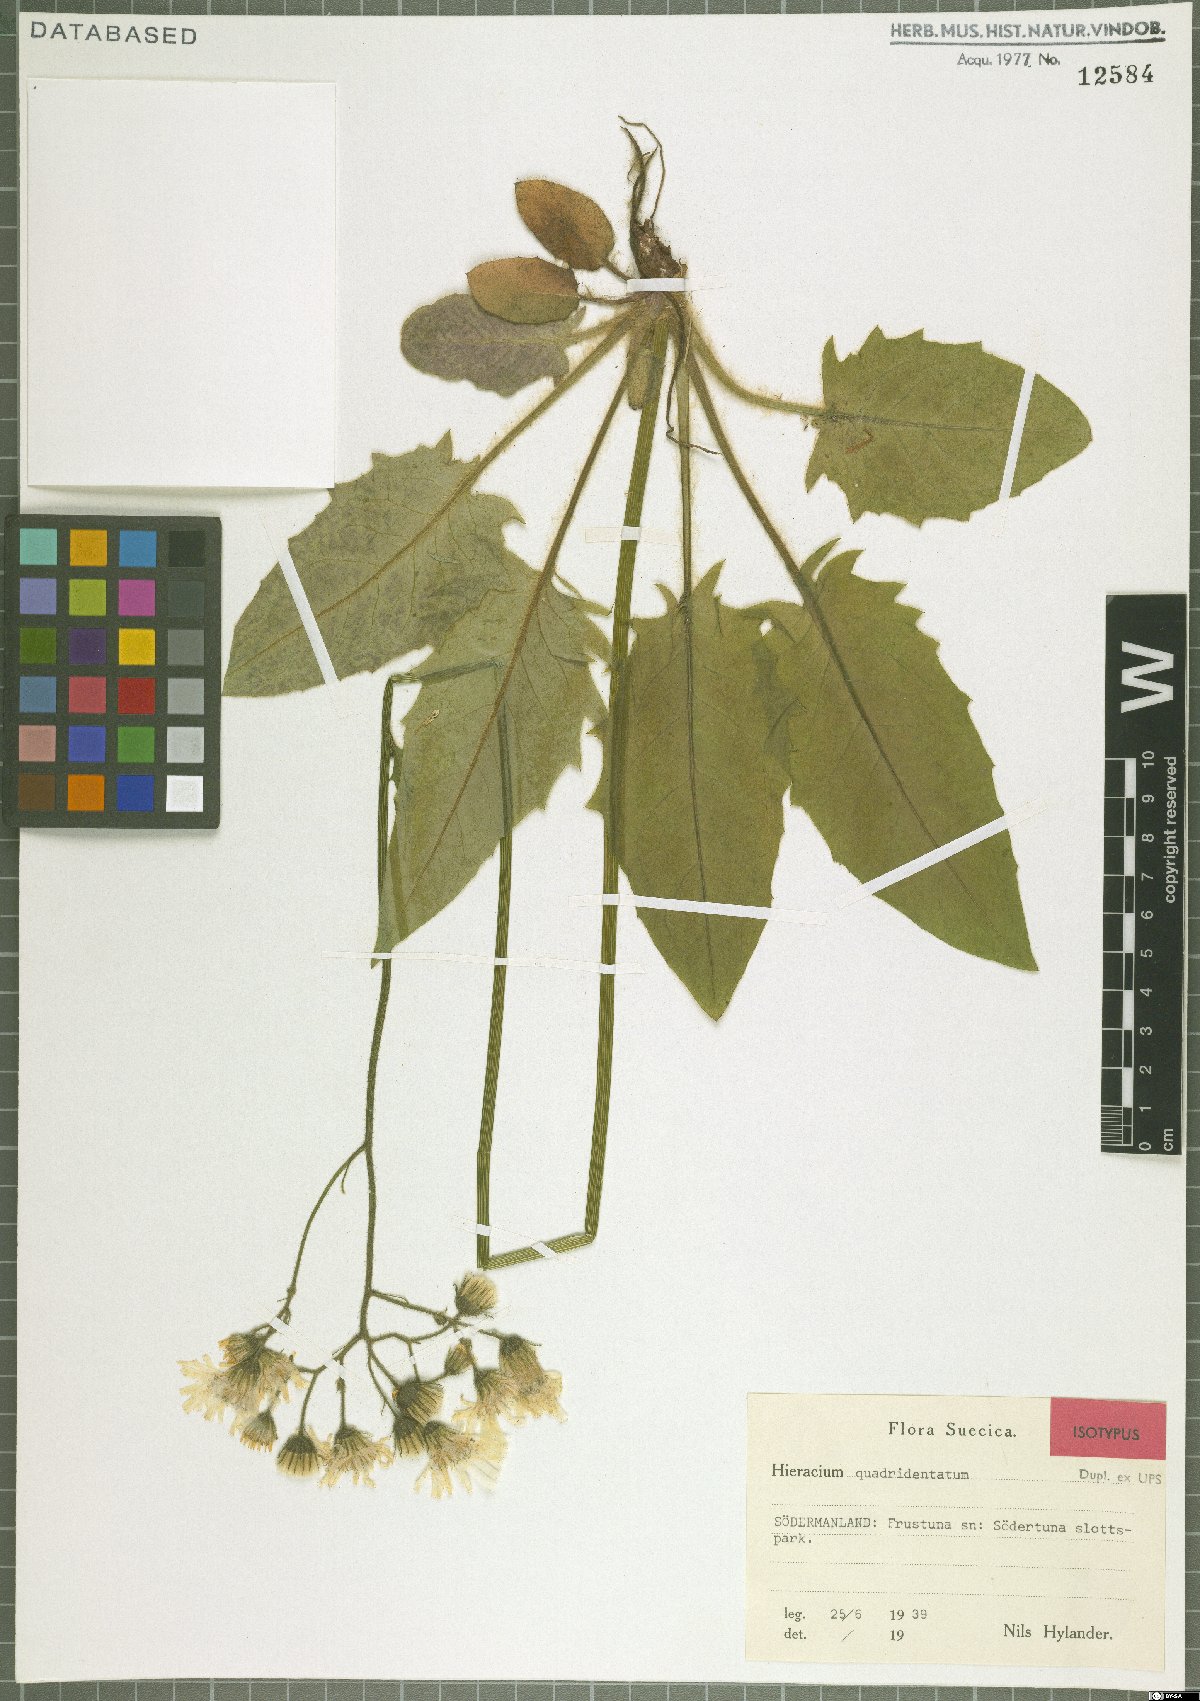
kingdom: Plantae
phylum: Tracheophyta
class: Magnoliopsida
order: Asterales
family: Asteraceae
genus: Hieracium
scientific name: Hieracium quadridentatum
